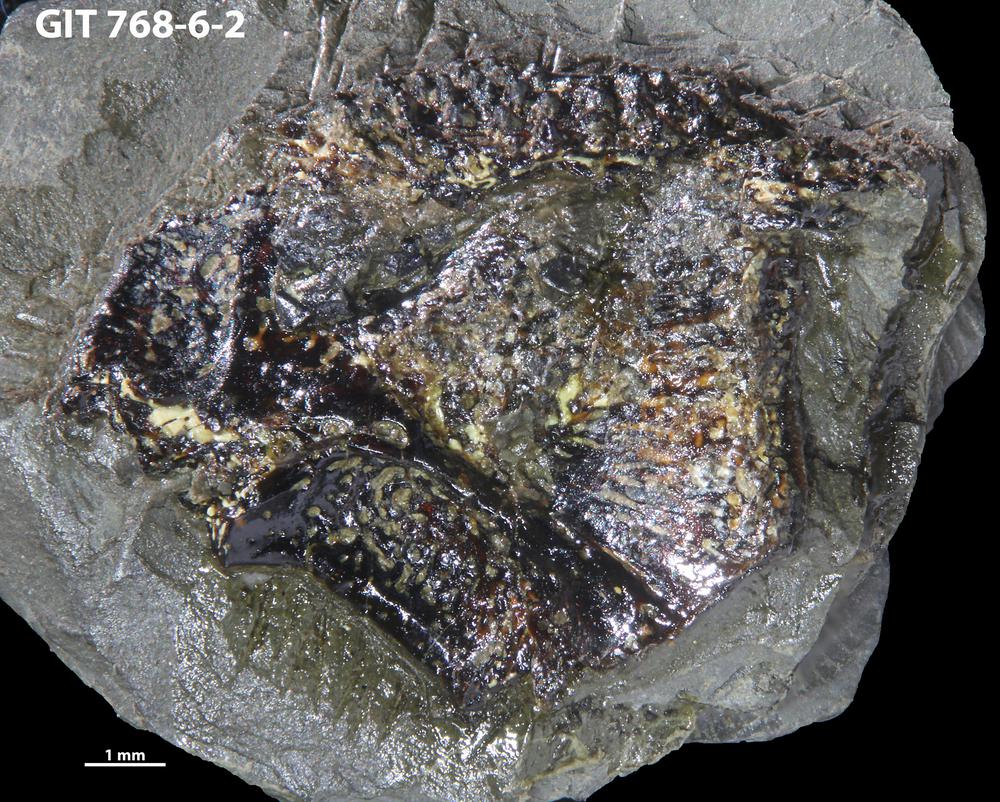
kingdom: Animalia
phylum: Chordata
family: Holonematidae
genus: Groenlandaspis
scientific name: Groenlandaspis
